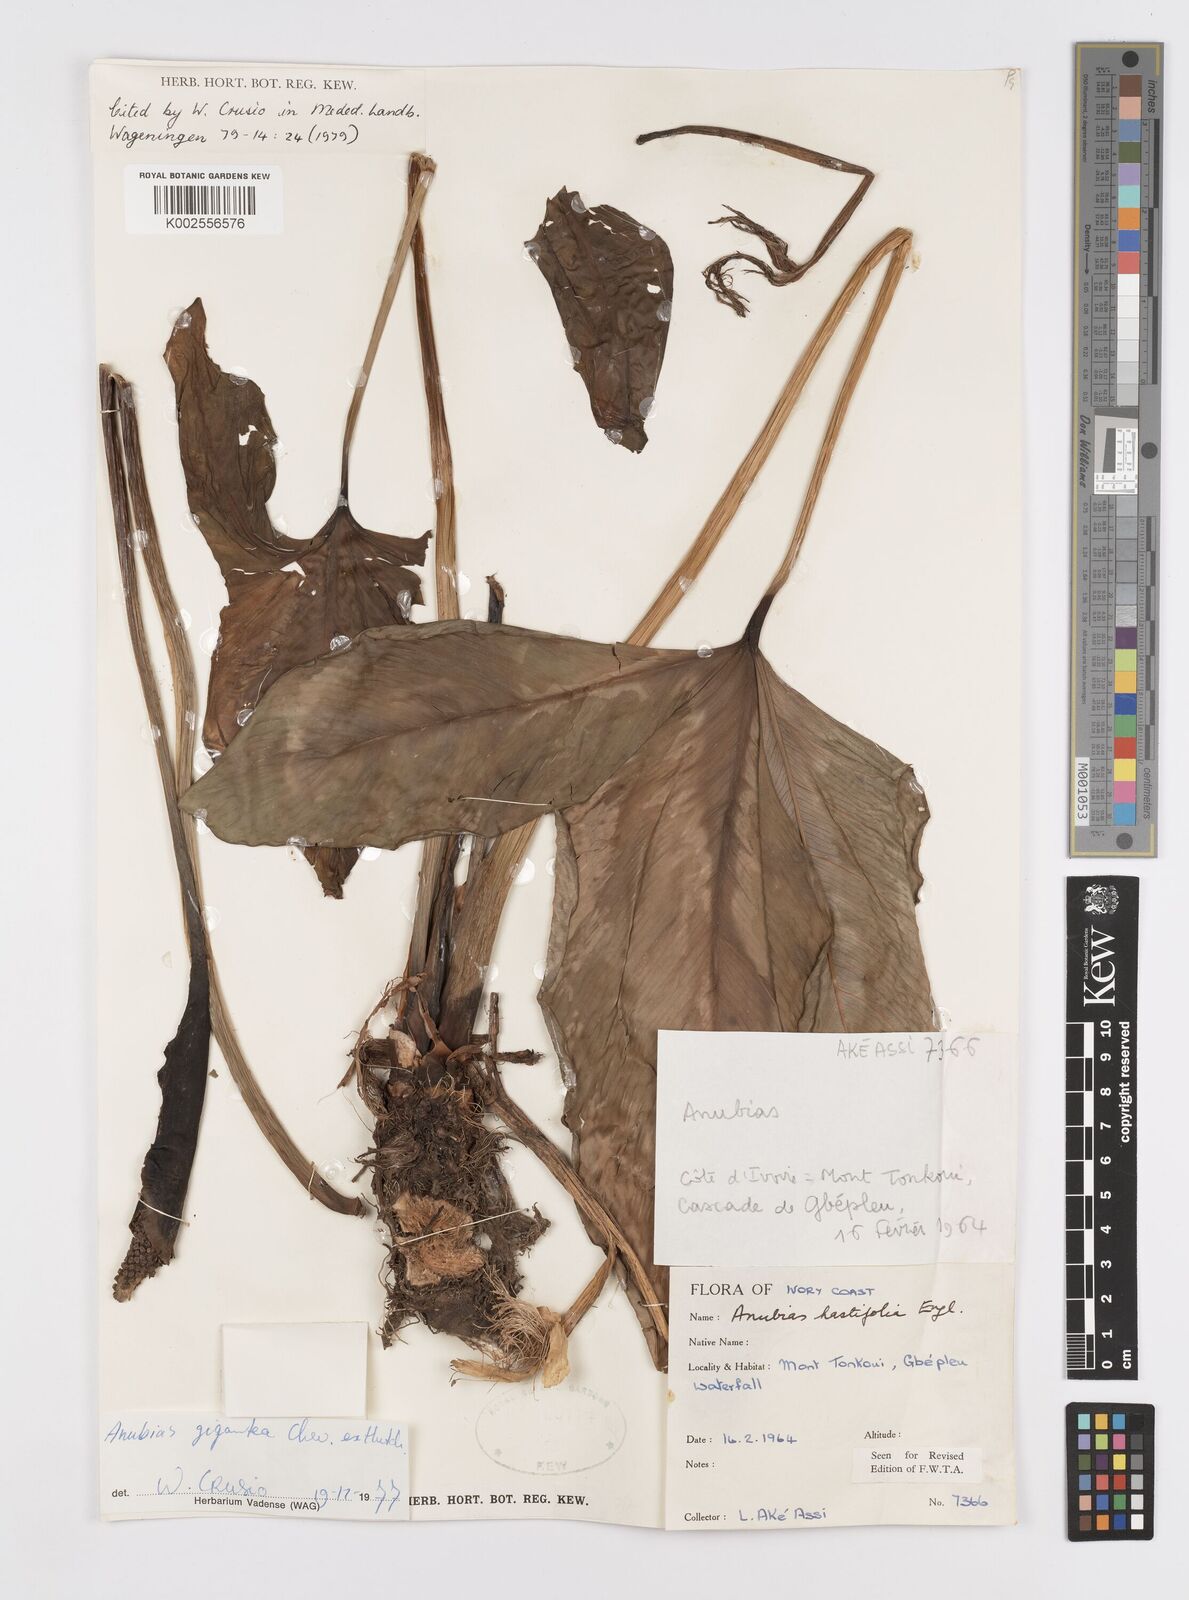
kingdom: Plantae
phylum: Tracheophyta
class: Liliopsida
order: Alismatales
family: Araceae
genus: Anubias
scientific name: Anubias gigantea
